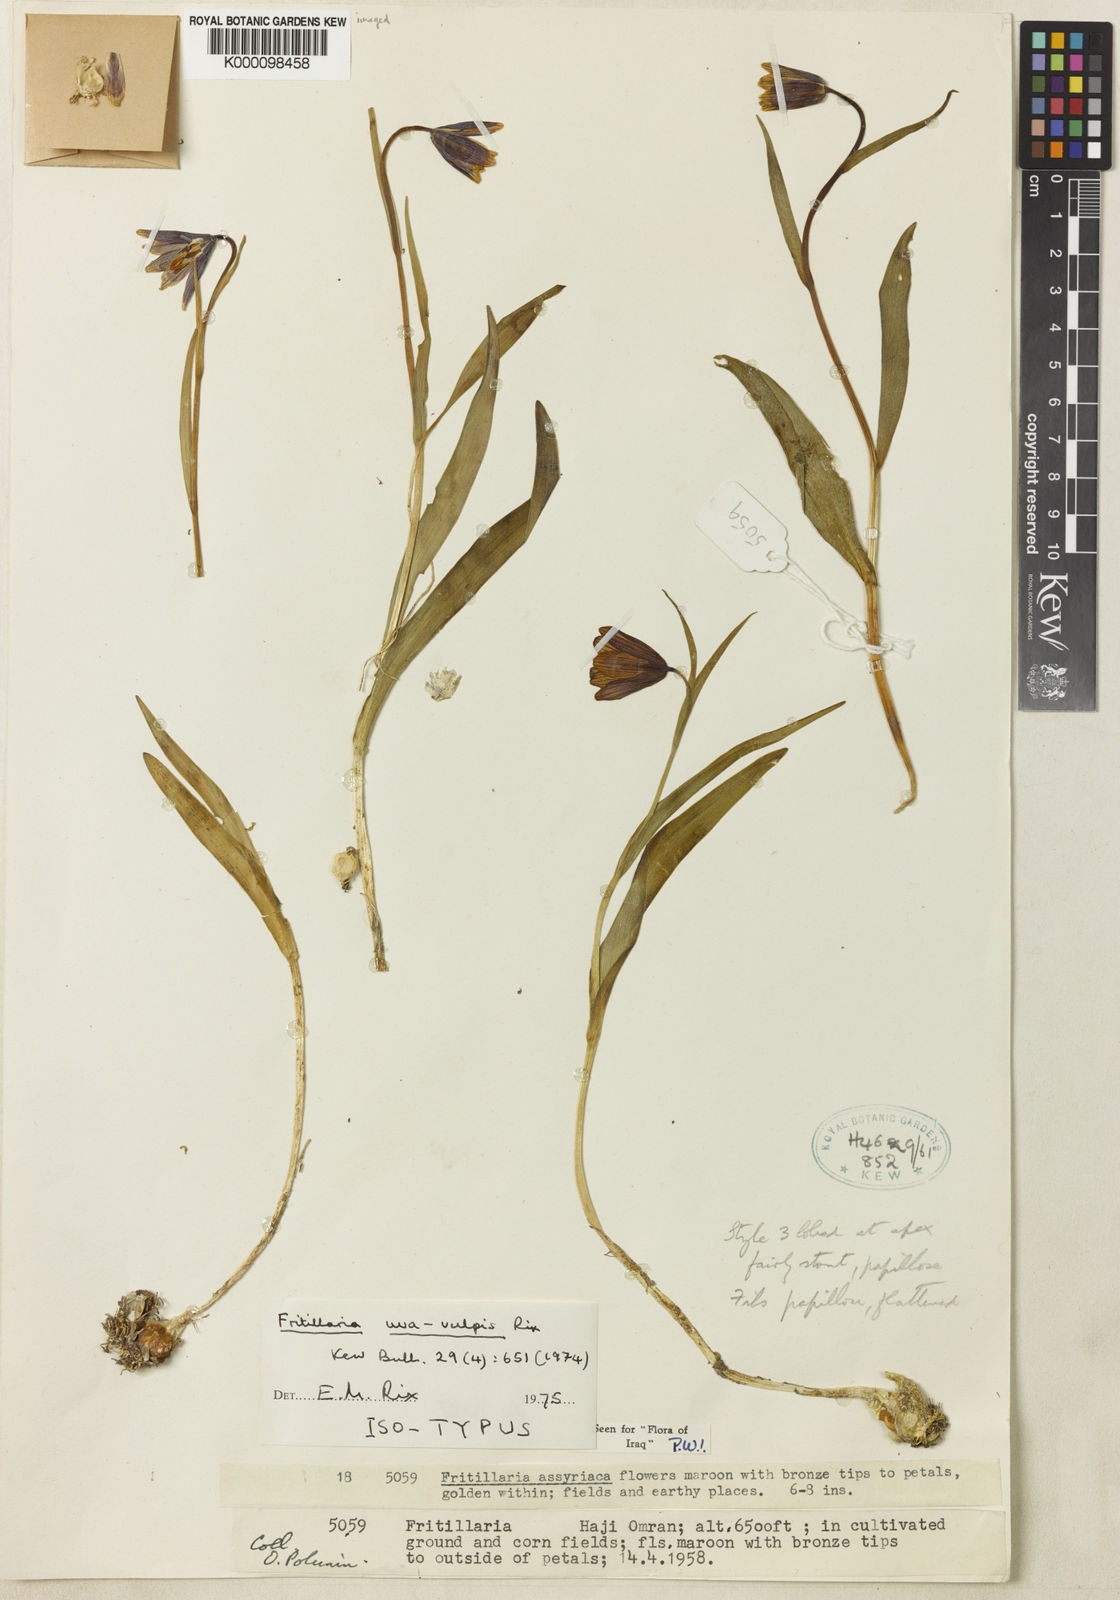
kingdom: Plantae
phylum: Tracheophyta
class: Liliopsida
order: Liliales
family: Liliaceae
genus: Fritillaria
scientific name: Fritillaria uva-vulpis
